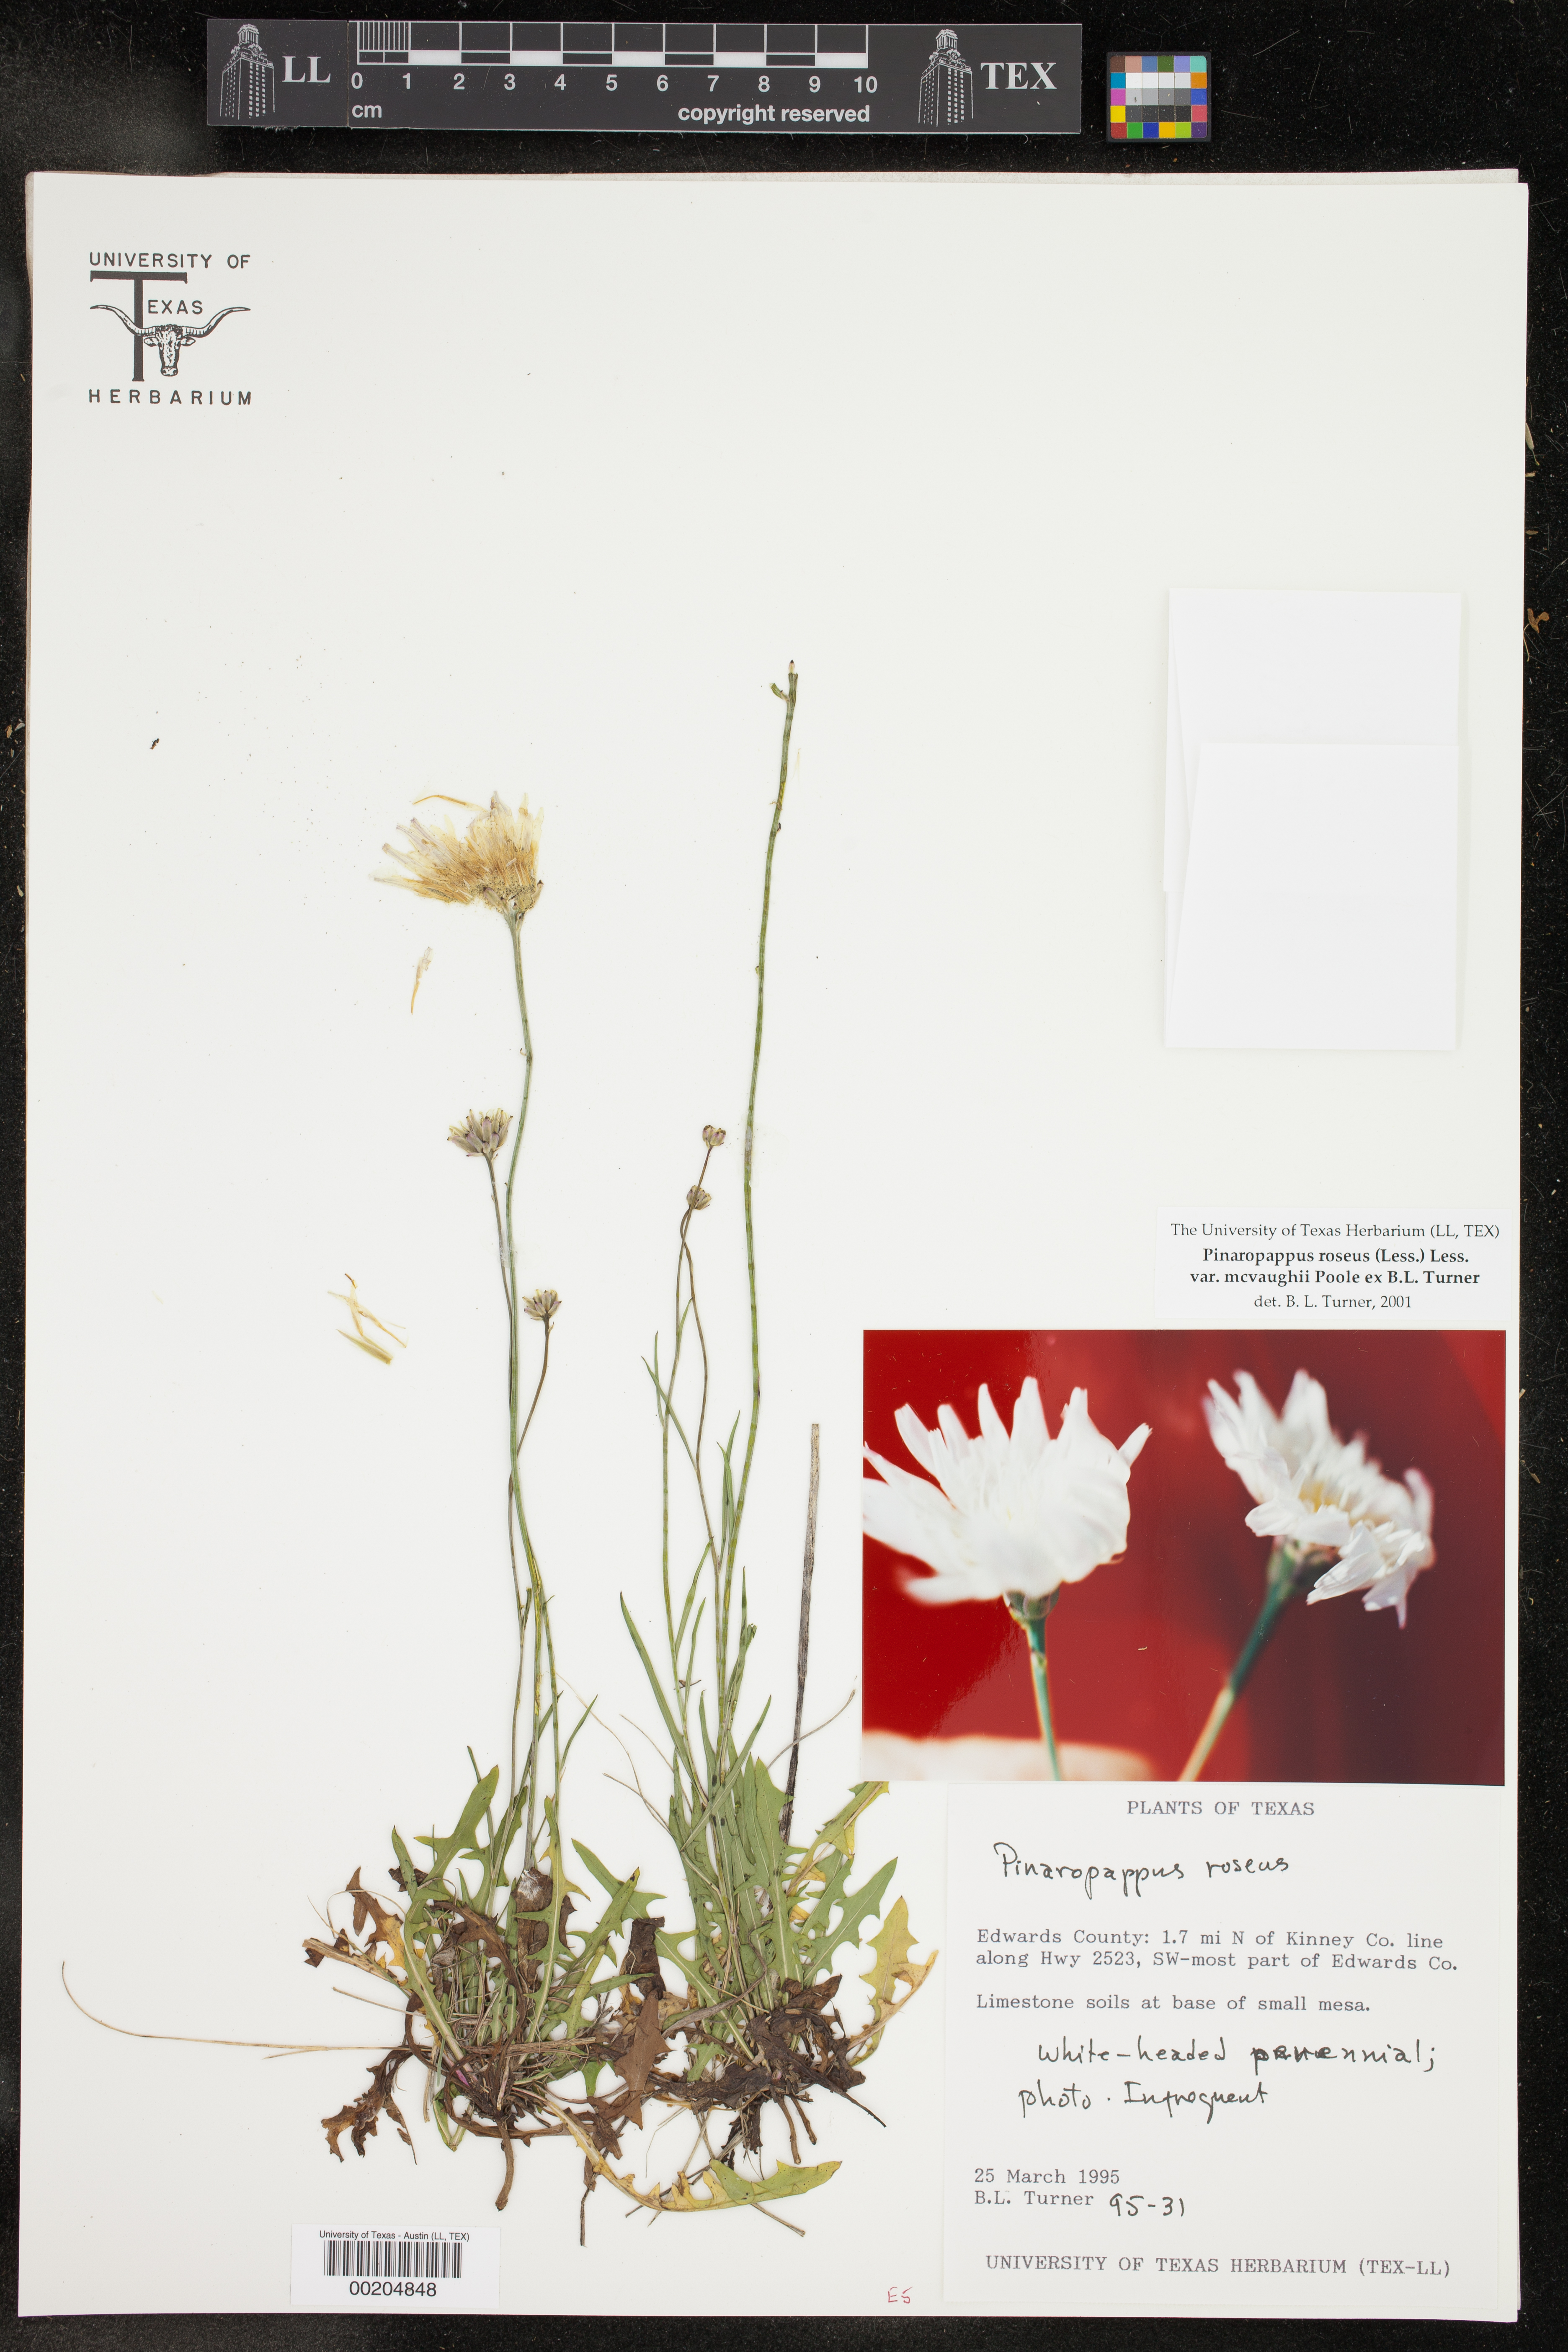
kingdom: Plantae
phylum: Tracheophyta
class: Magnoliopsida
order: Asterales
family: Asteraceae
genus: Pinaropappus
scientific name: Pinaropappus roseus
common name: Rock-lettuce
